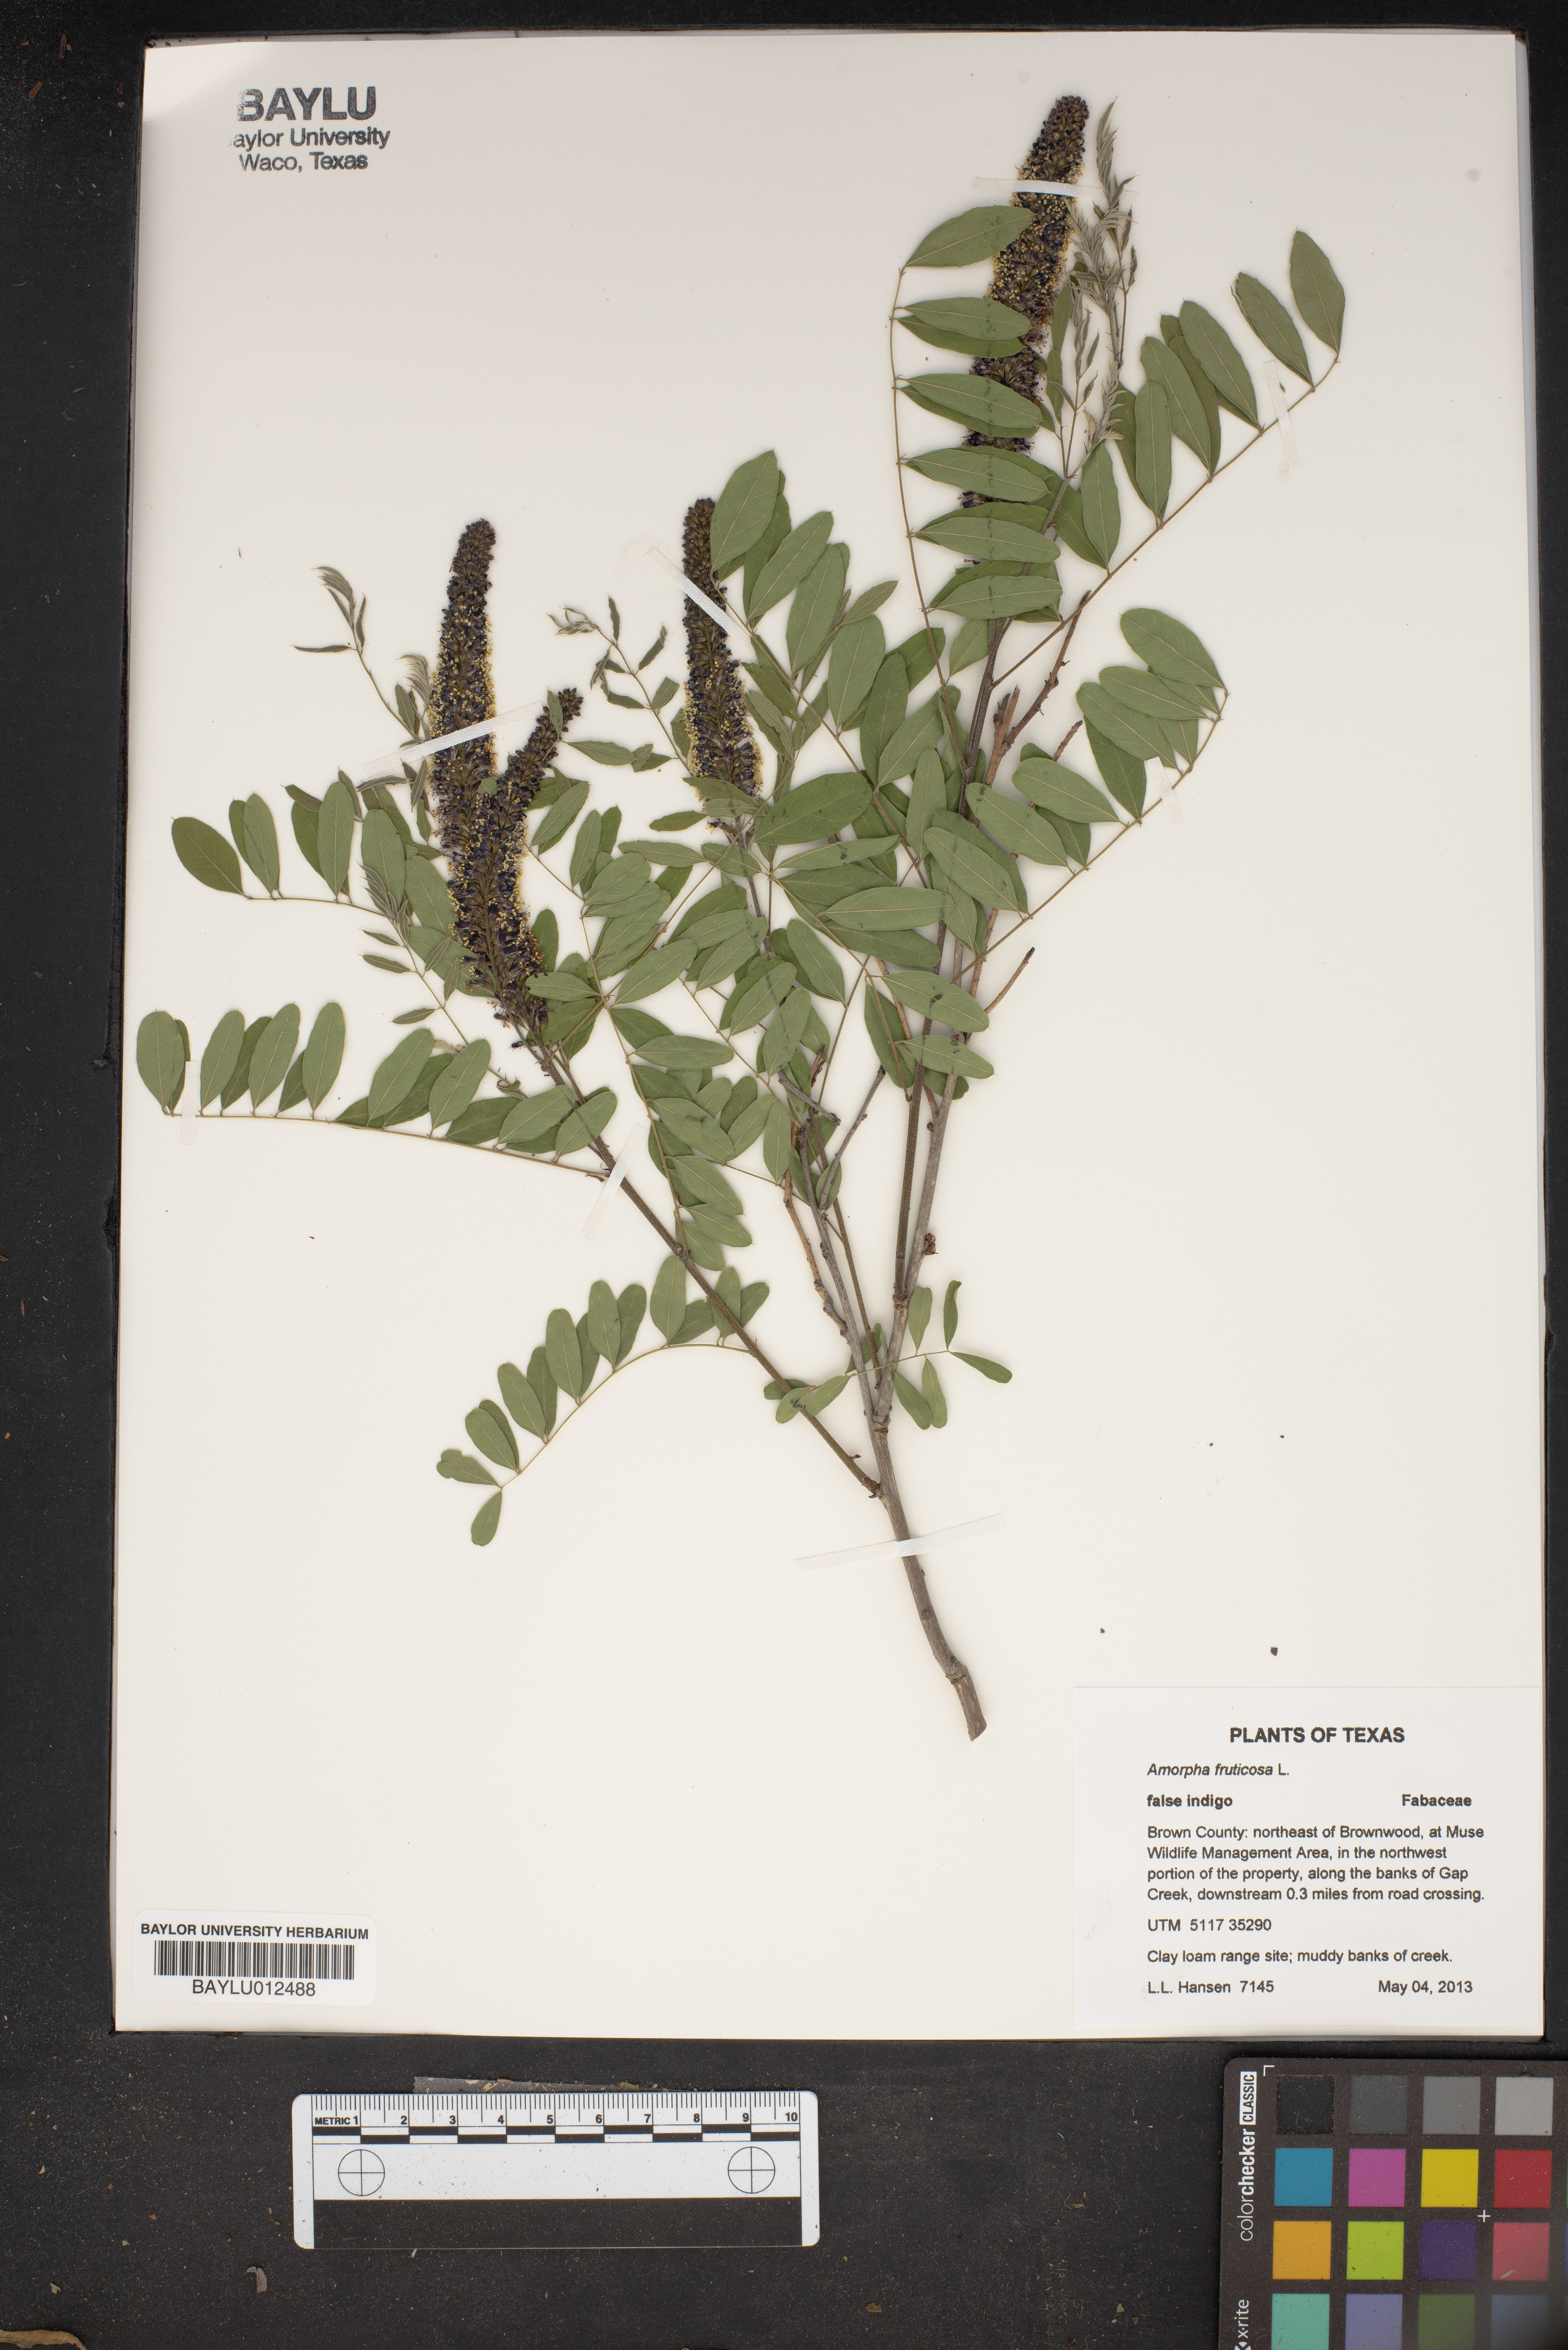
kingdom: Plantae
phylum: Tracheophyta
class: Magnoliopsida
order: Fabales
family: Fabaceae
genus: Amorpha
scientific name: Amorpha fruticosa
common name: False indigo
